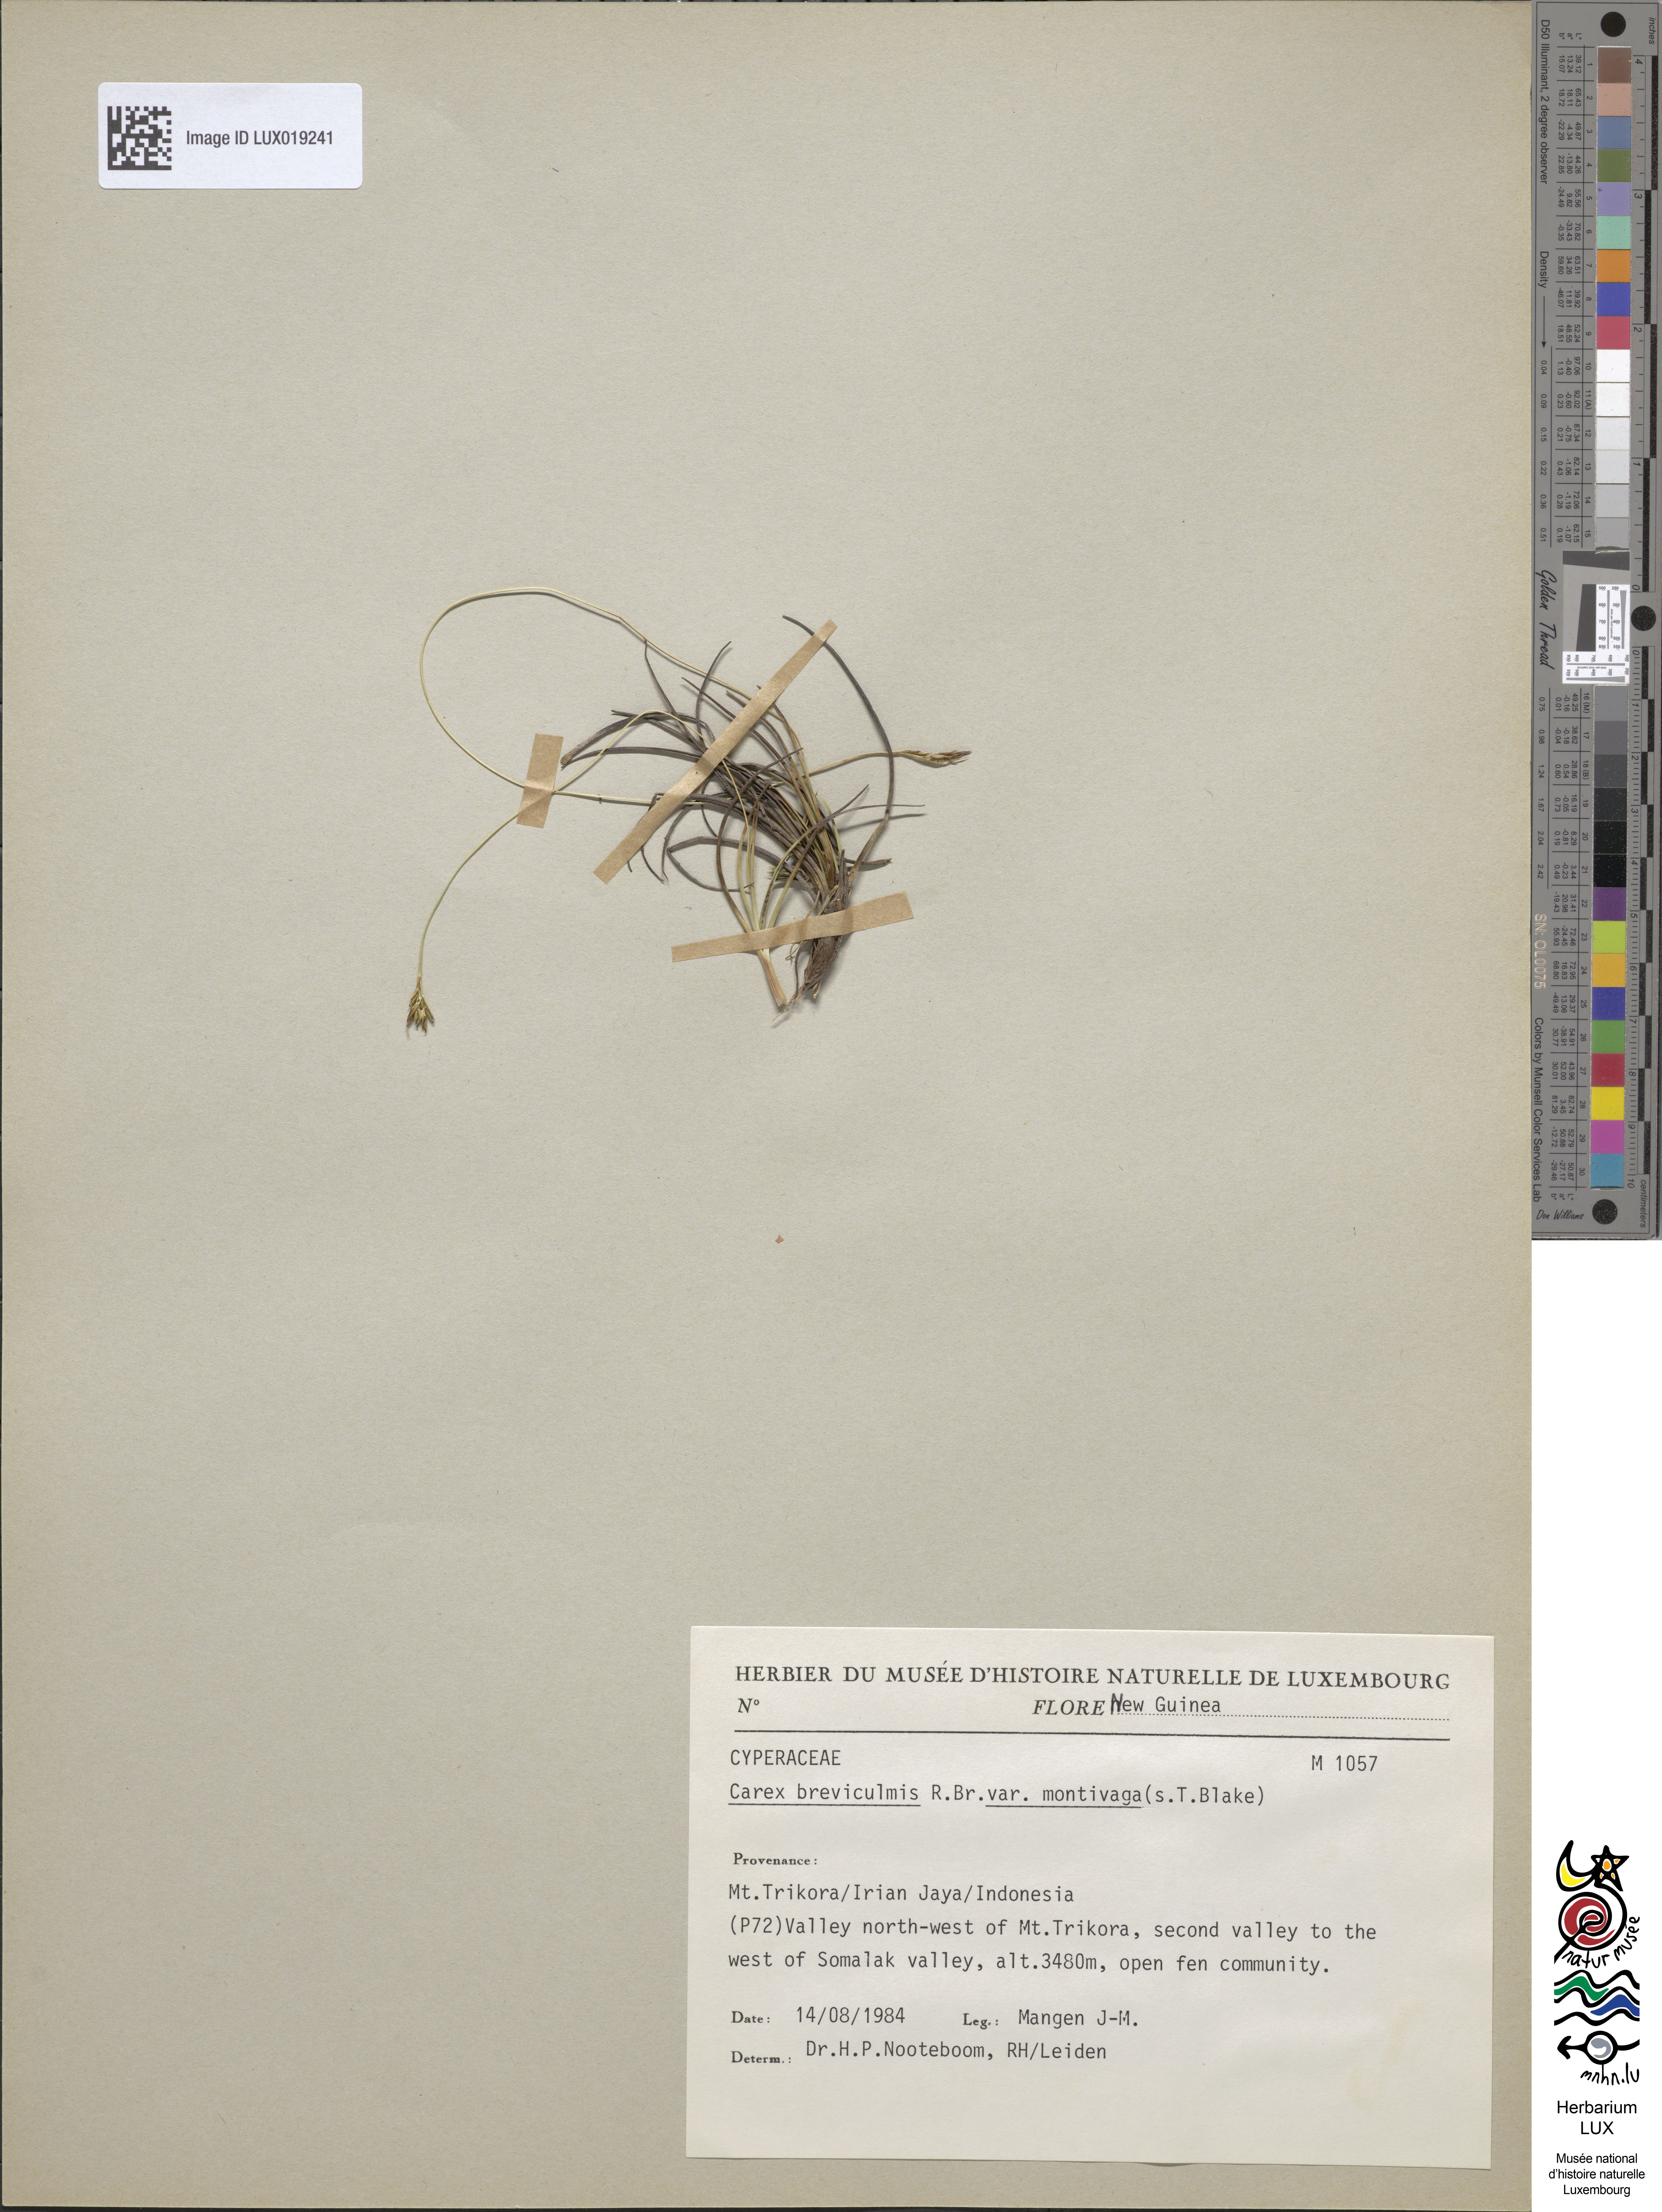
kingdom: Plantae
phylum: Tracheophyta
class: Liliopsida
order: Poales
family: Cyperaceae
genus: Carex
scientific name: Carex breviculmis
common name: Asian shortstem sedge
